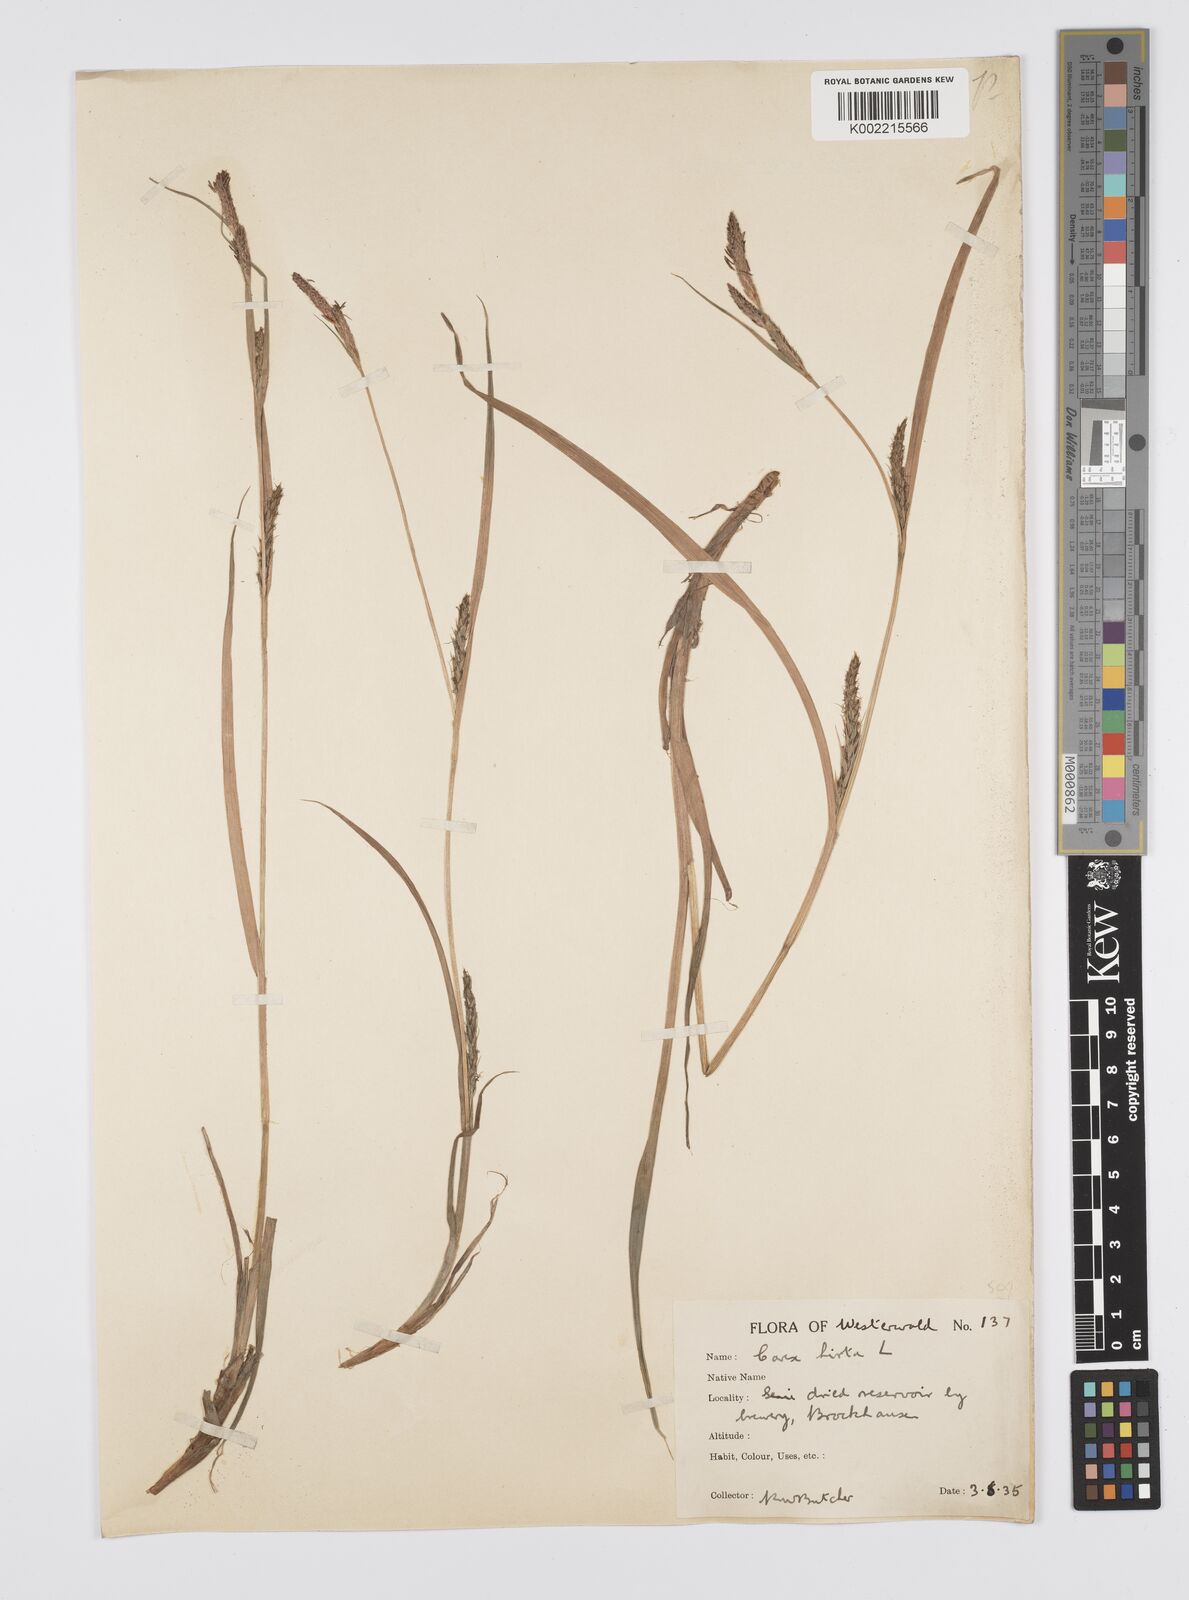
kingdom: Plantae
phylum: Tracheophyta
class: Liliopsida
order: Poales
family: Cyperaceae
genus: Carex
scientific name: Carex hirta
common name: Hairy sedge
